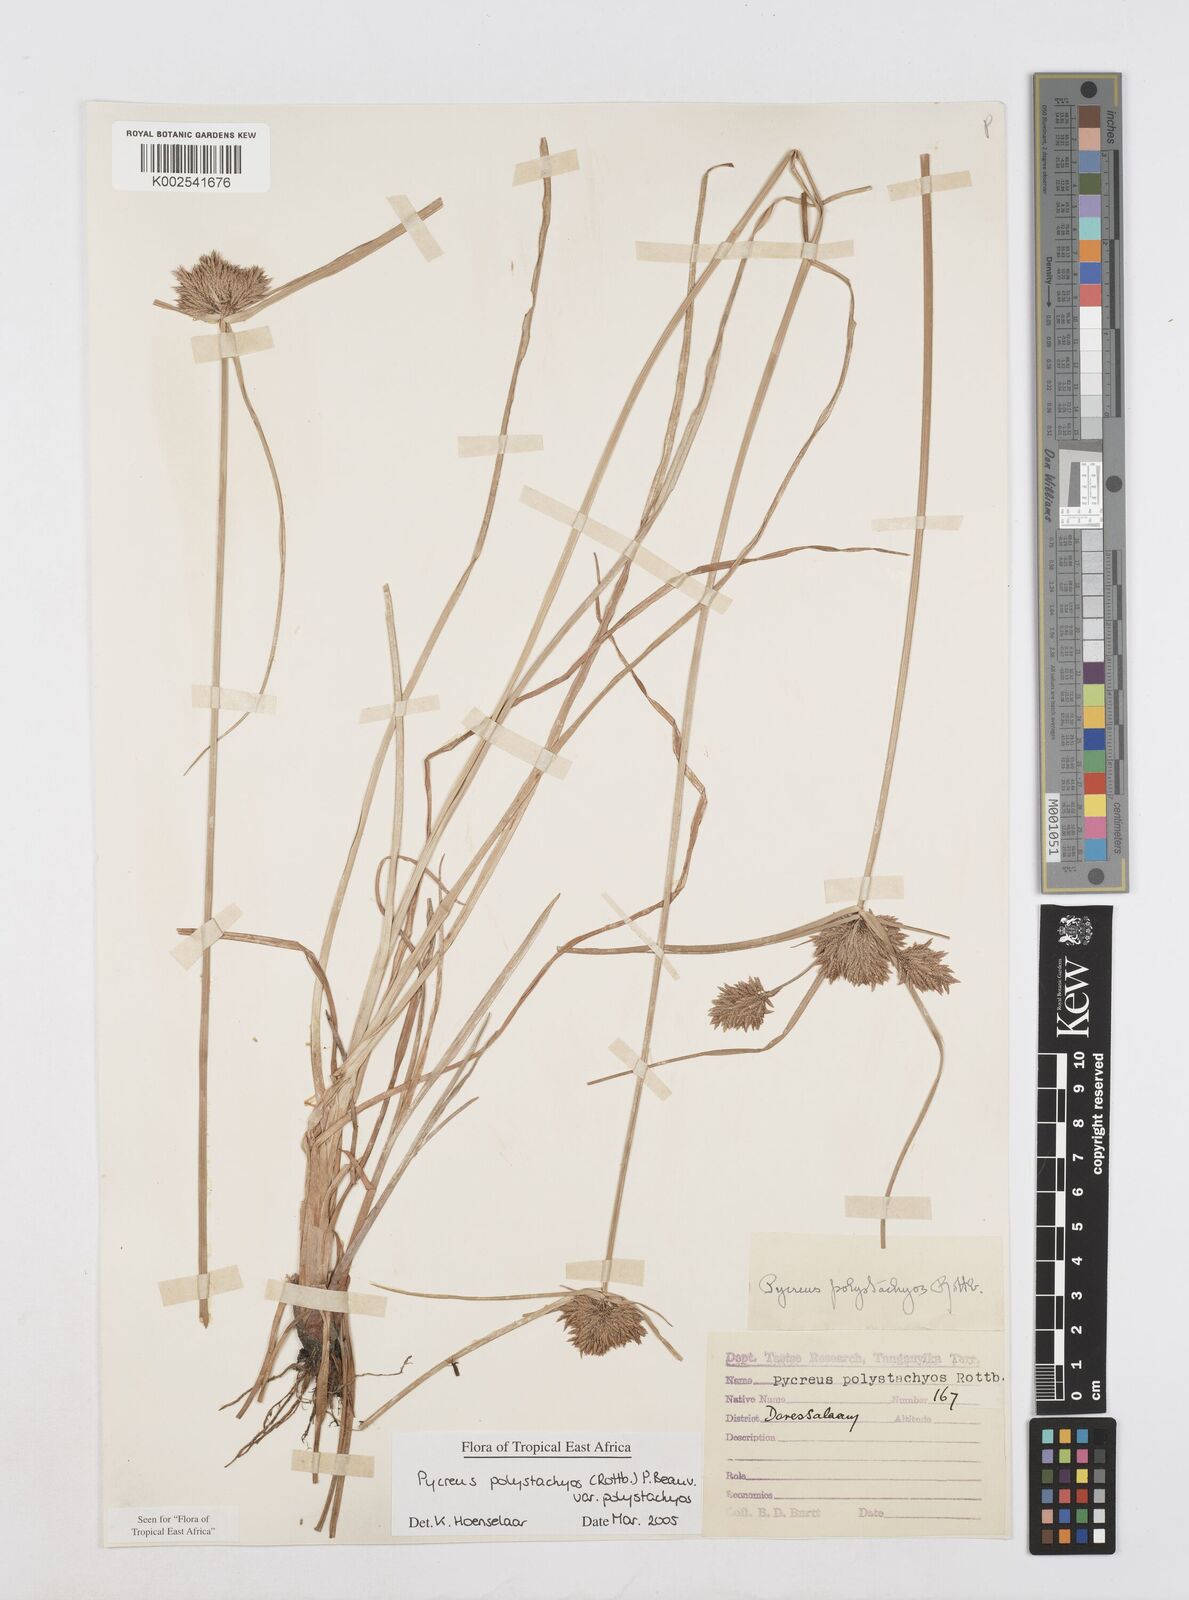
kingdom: Plantae
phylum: Tracheophyta
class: Liliopsida
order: Poales
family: Cyperaceae
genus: Cyperus
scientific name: Cyperus polystachyos
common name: Bunchy flat sedge
